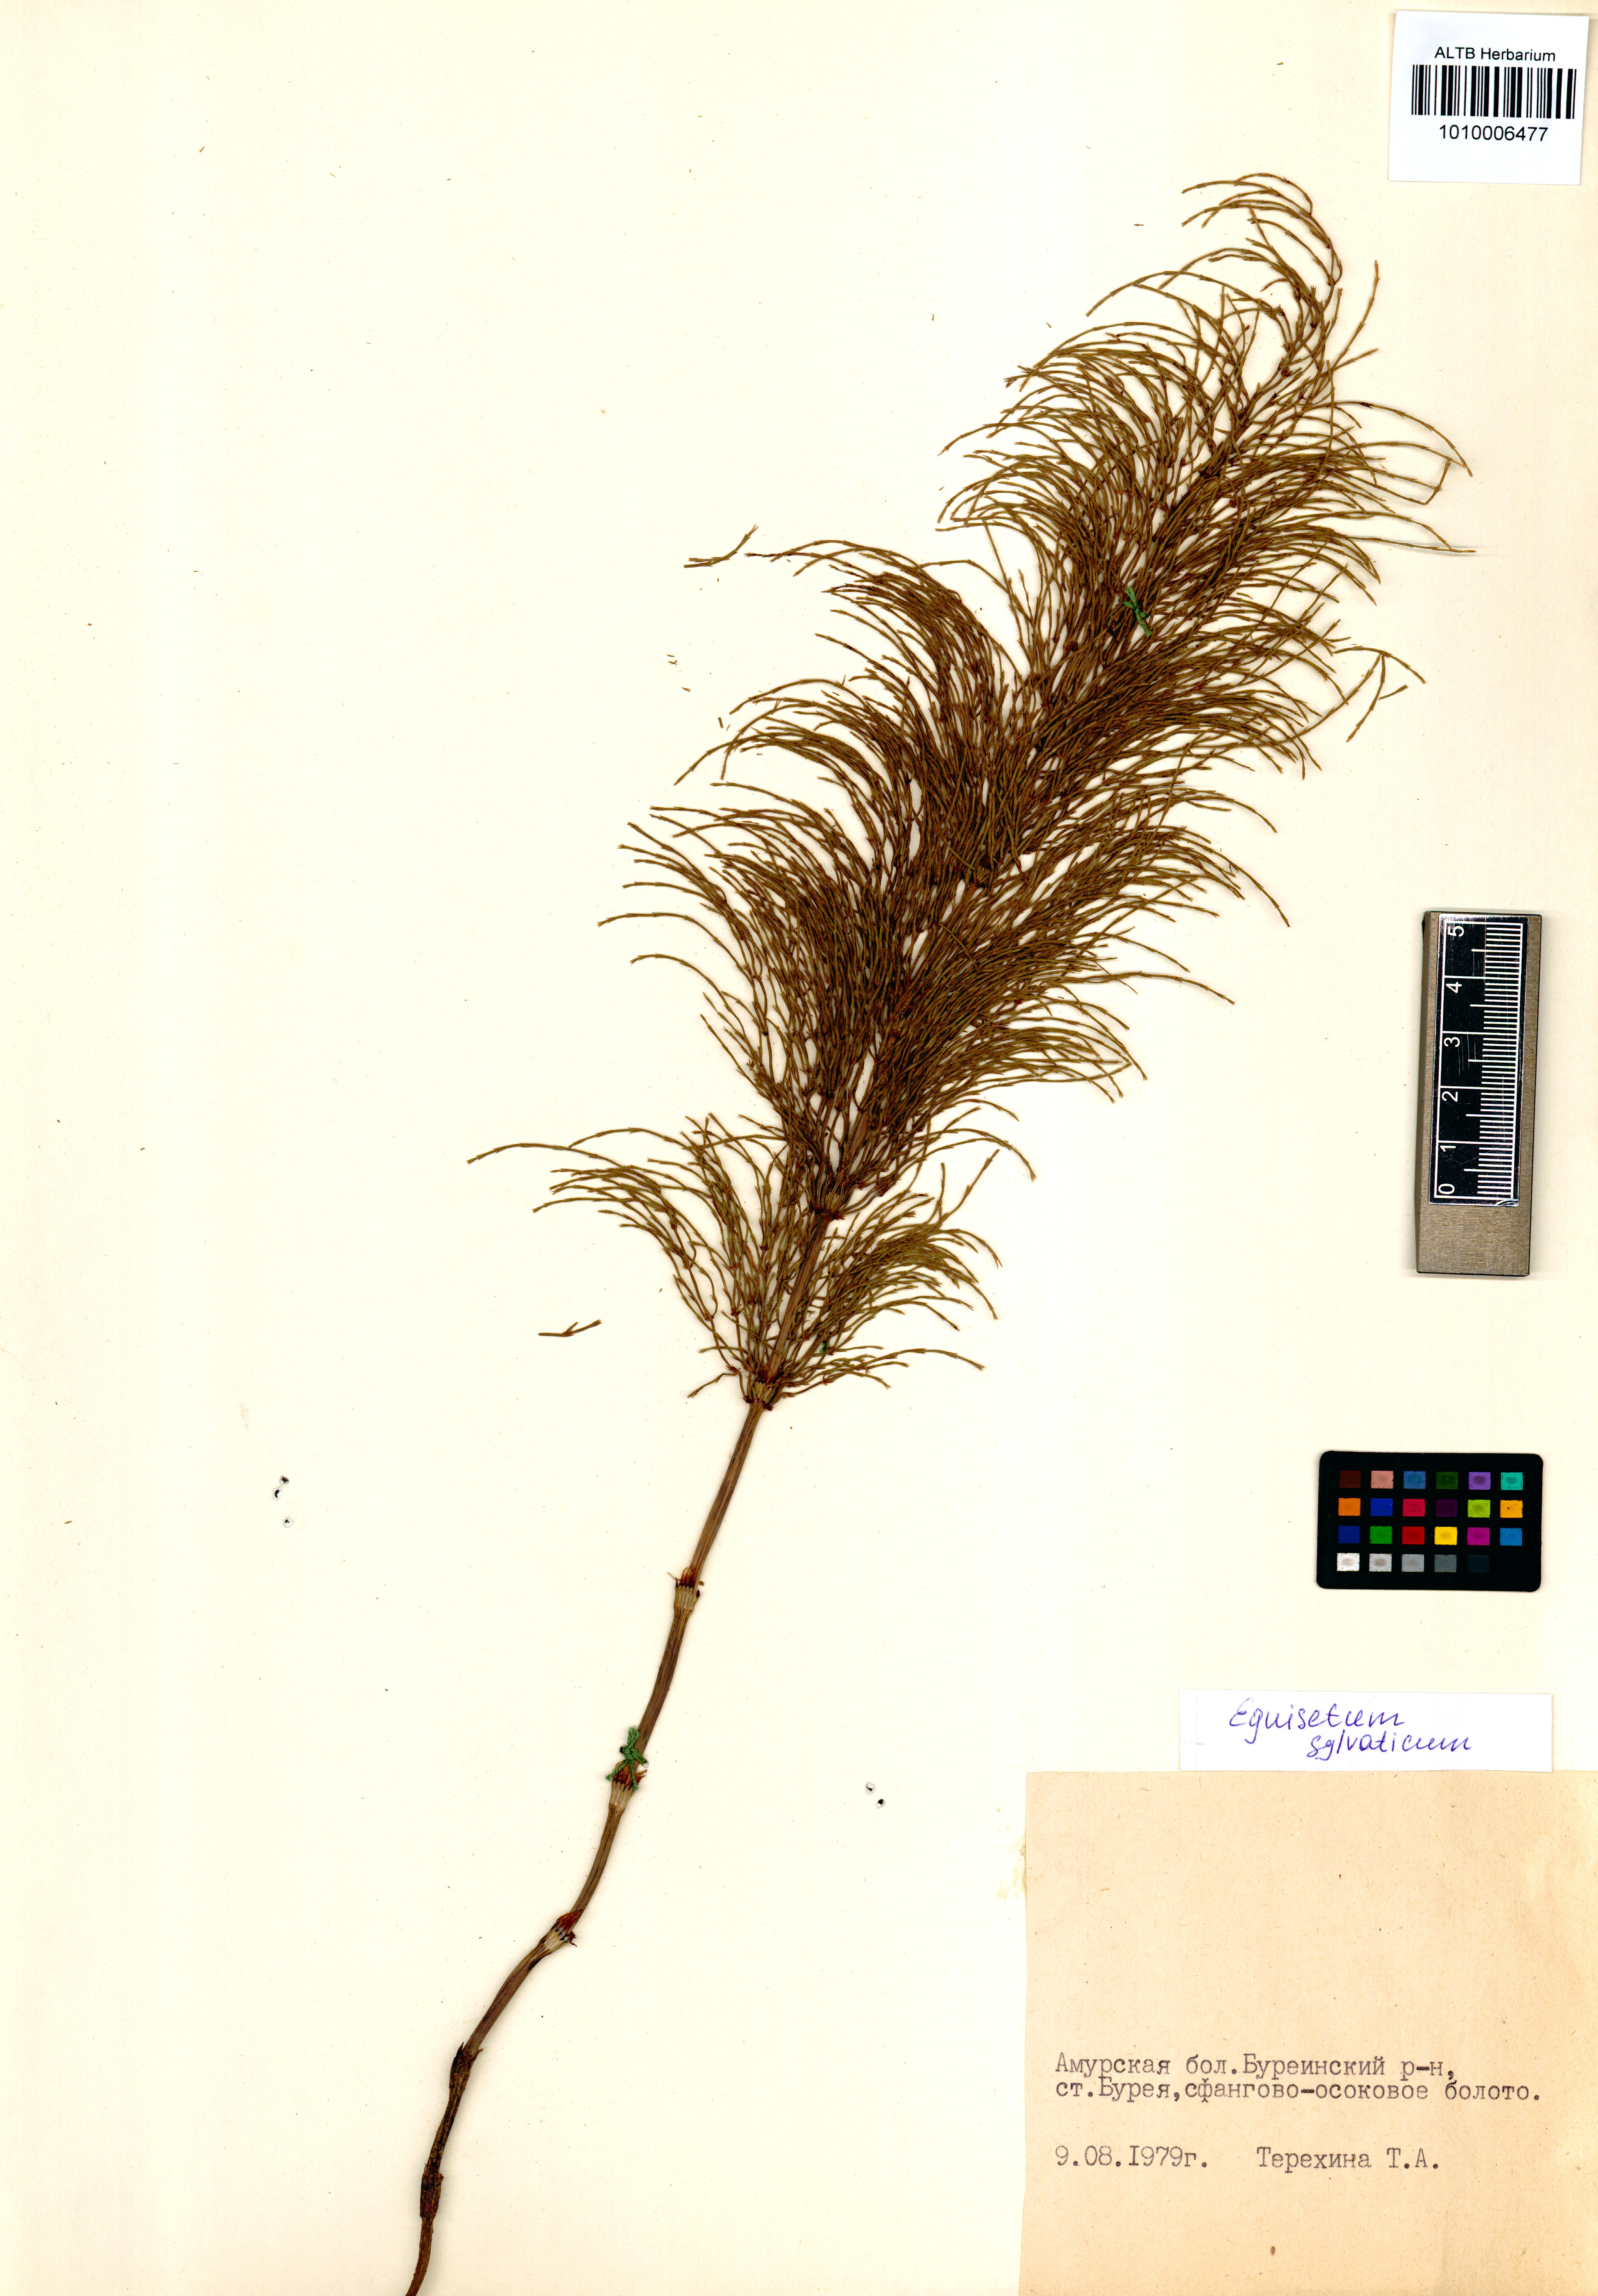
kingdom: Plantae
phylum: Tracheophyta
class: Polypodiopsida
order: Equisetales
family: Equisetaceae
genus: Equisetum
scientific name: Equisetum sylvaticum
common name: Wood horsetail
